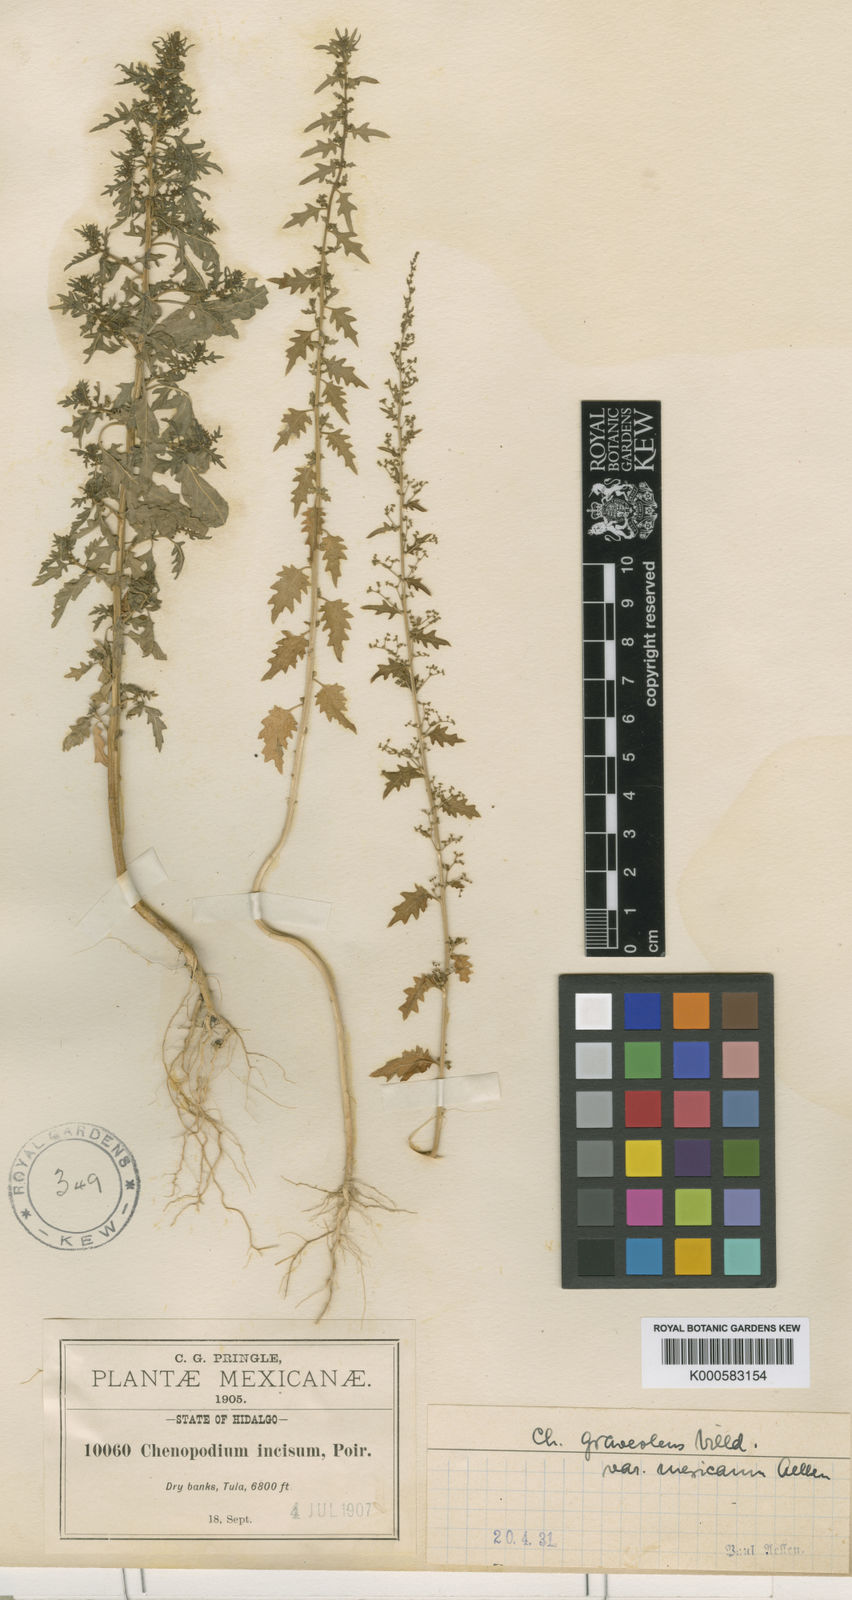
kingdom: Plantae
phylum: Tracheophyta
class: Magnoliopsida
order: Caryophyllales
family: Amaranthaceae
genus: Dysphania
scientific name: Dysphania graveolens
